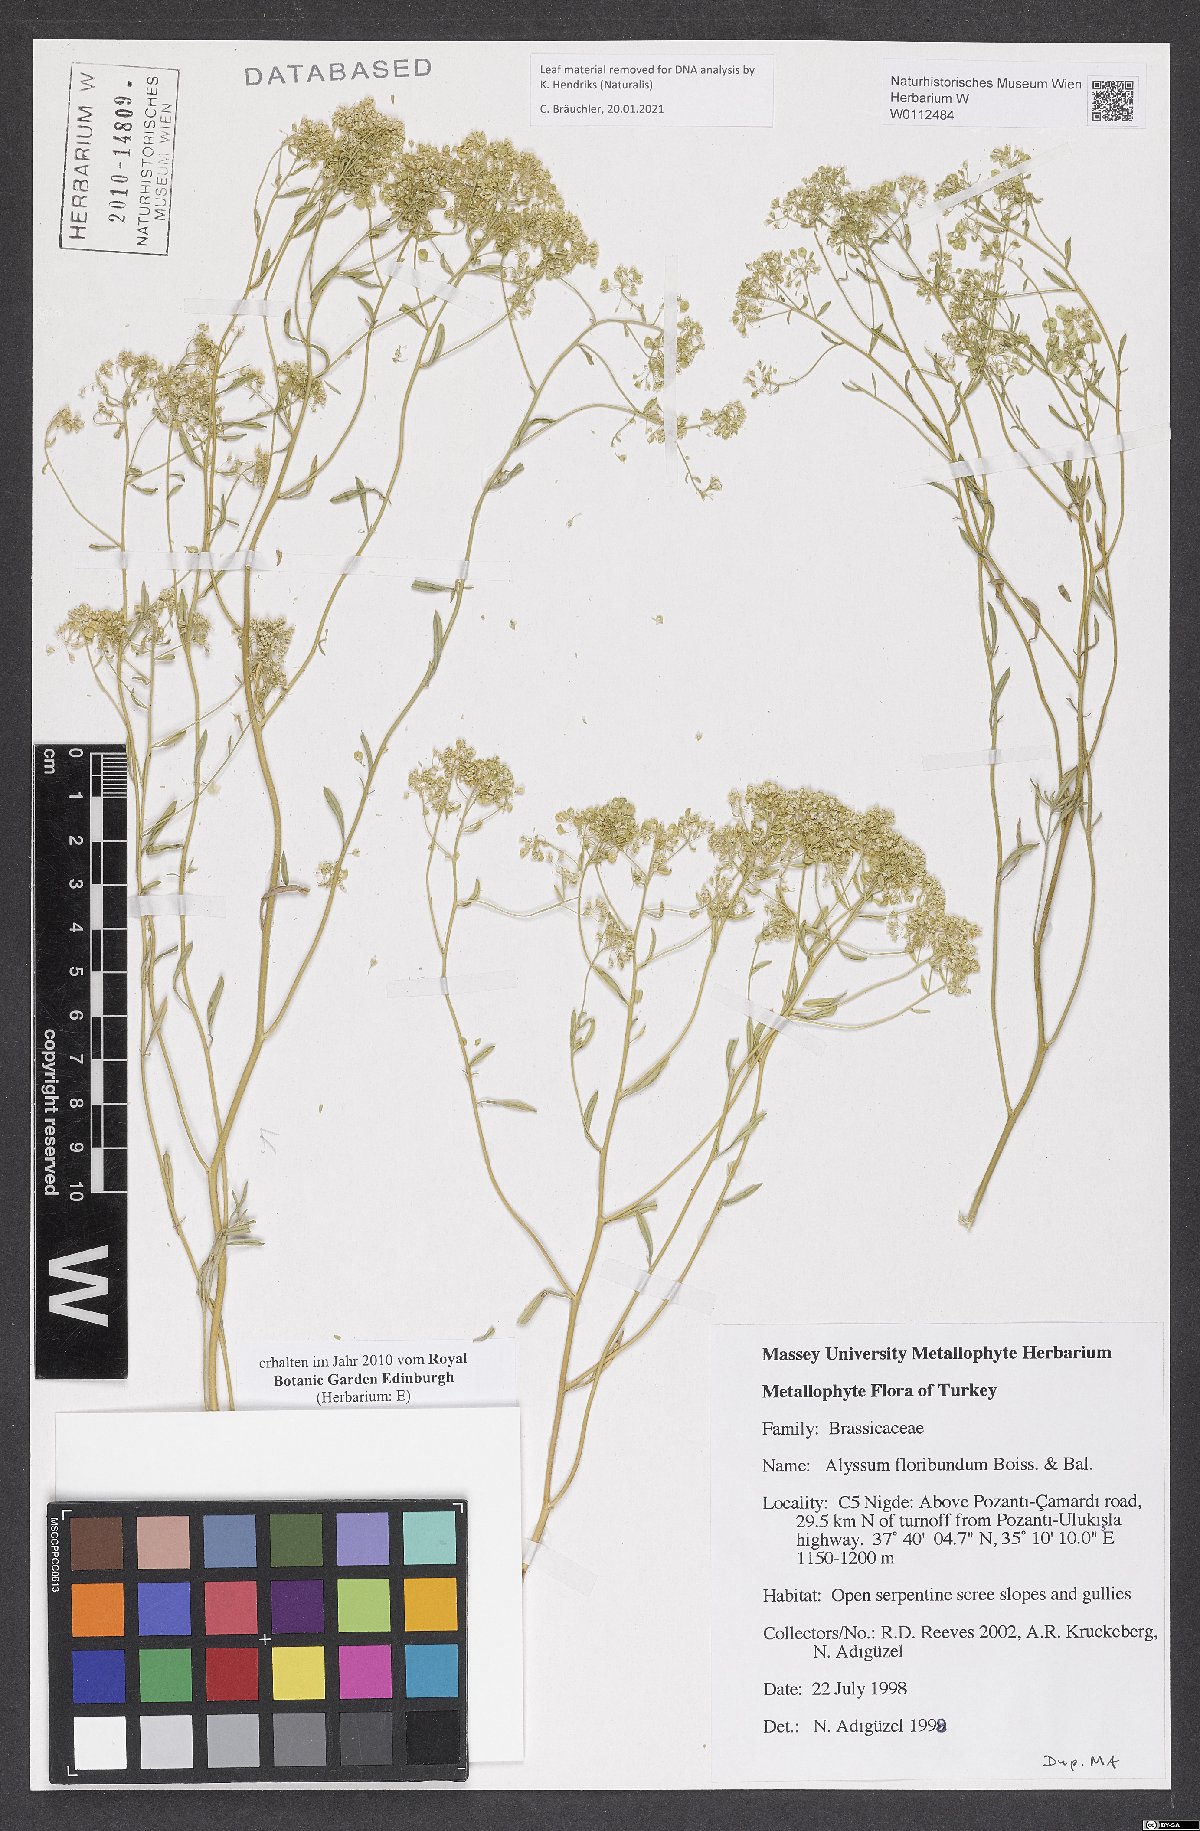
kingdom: Plantae
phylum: Tracheophyta
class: Magnoliopsida
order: Brassicales
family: Brassicaceae
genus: Odontarrhena
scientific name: Odontarrhena floribunda
